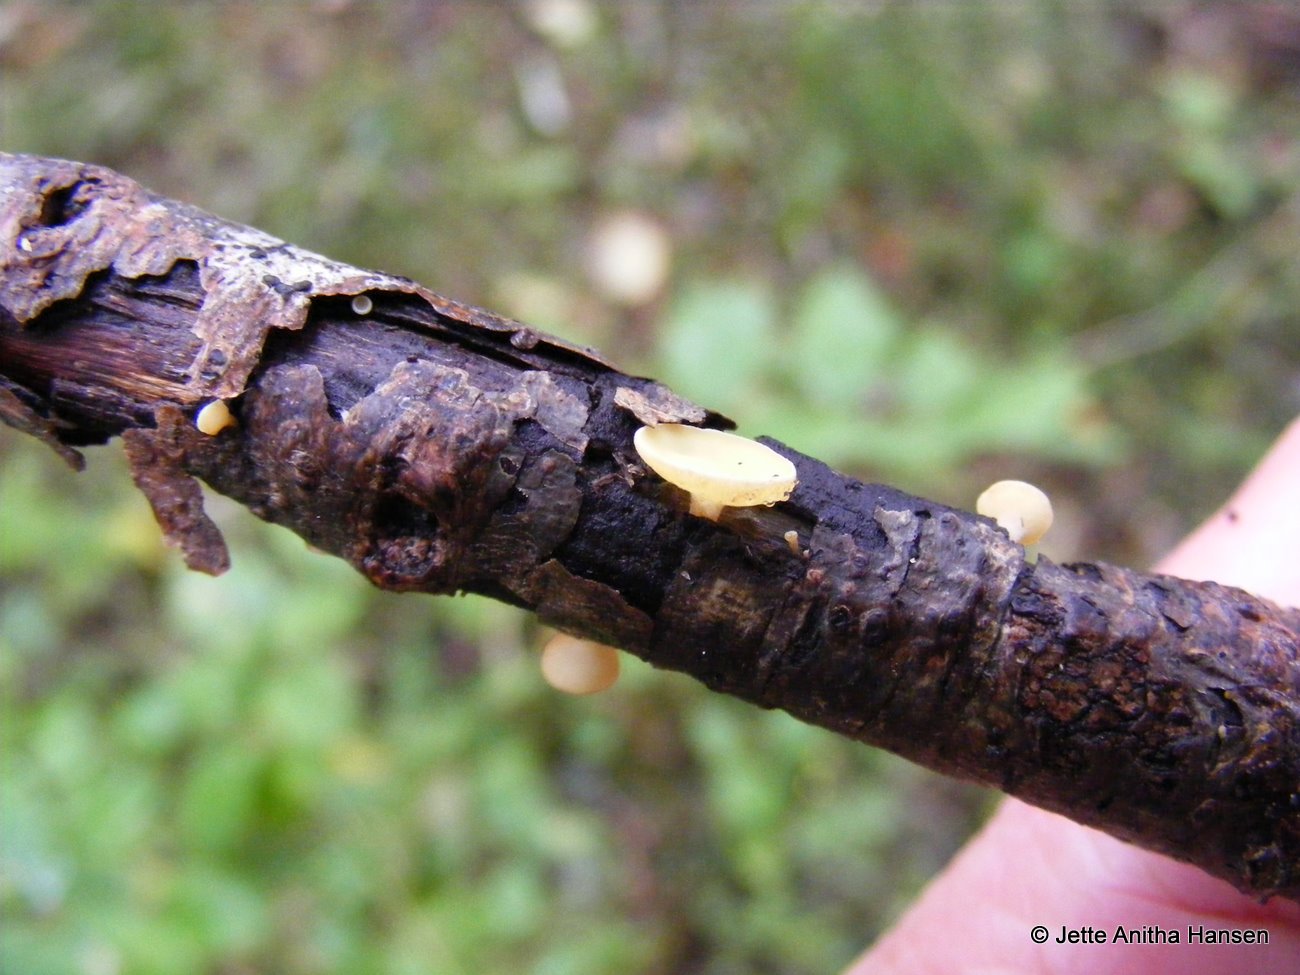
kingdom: Fungi
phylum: Ascomycota
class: Leotiomycetes
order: Helotiales
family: Helotiaceae
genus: Hymenoscyphus
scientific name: Hymenoscyphus calyculus
